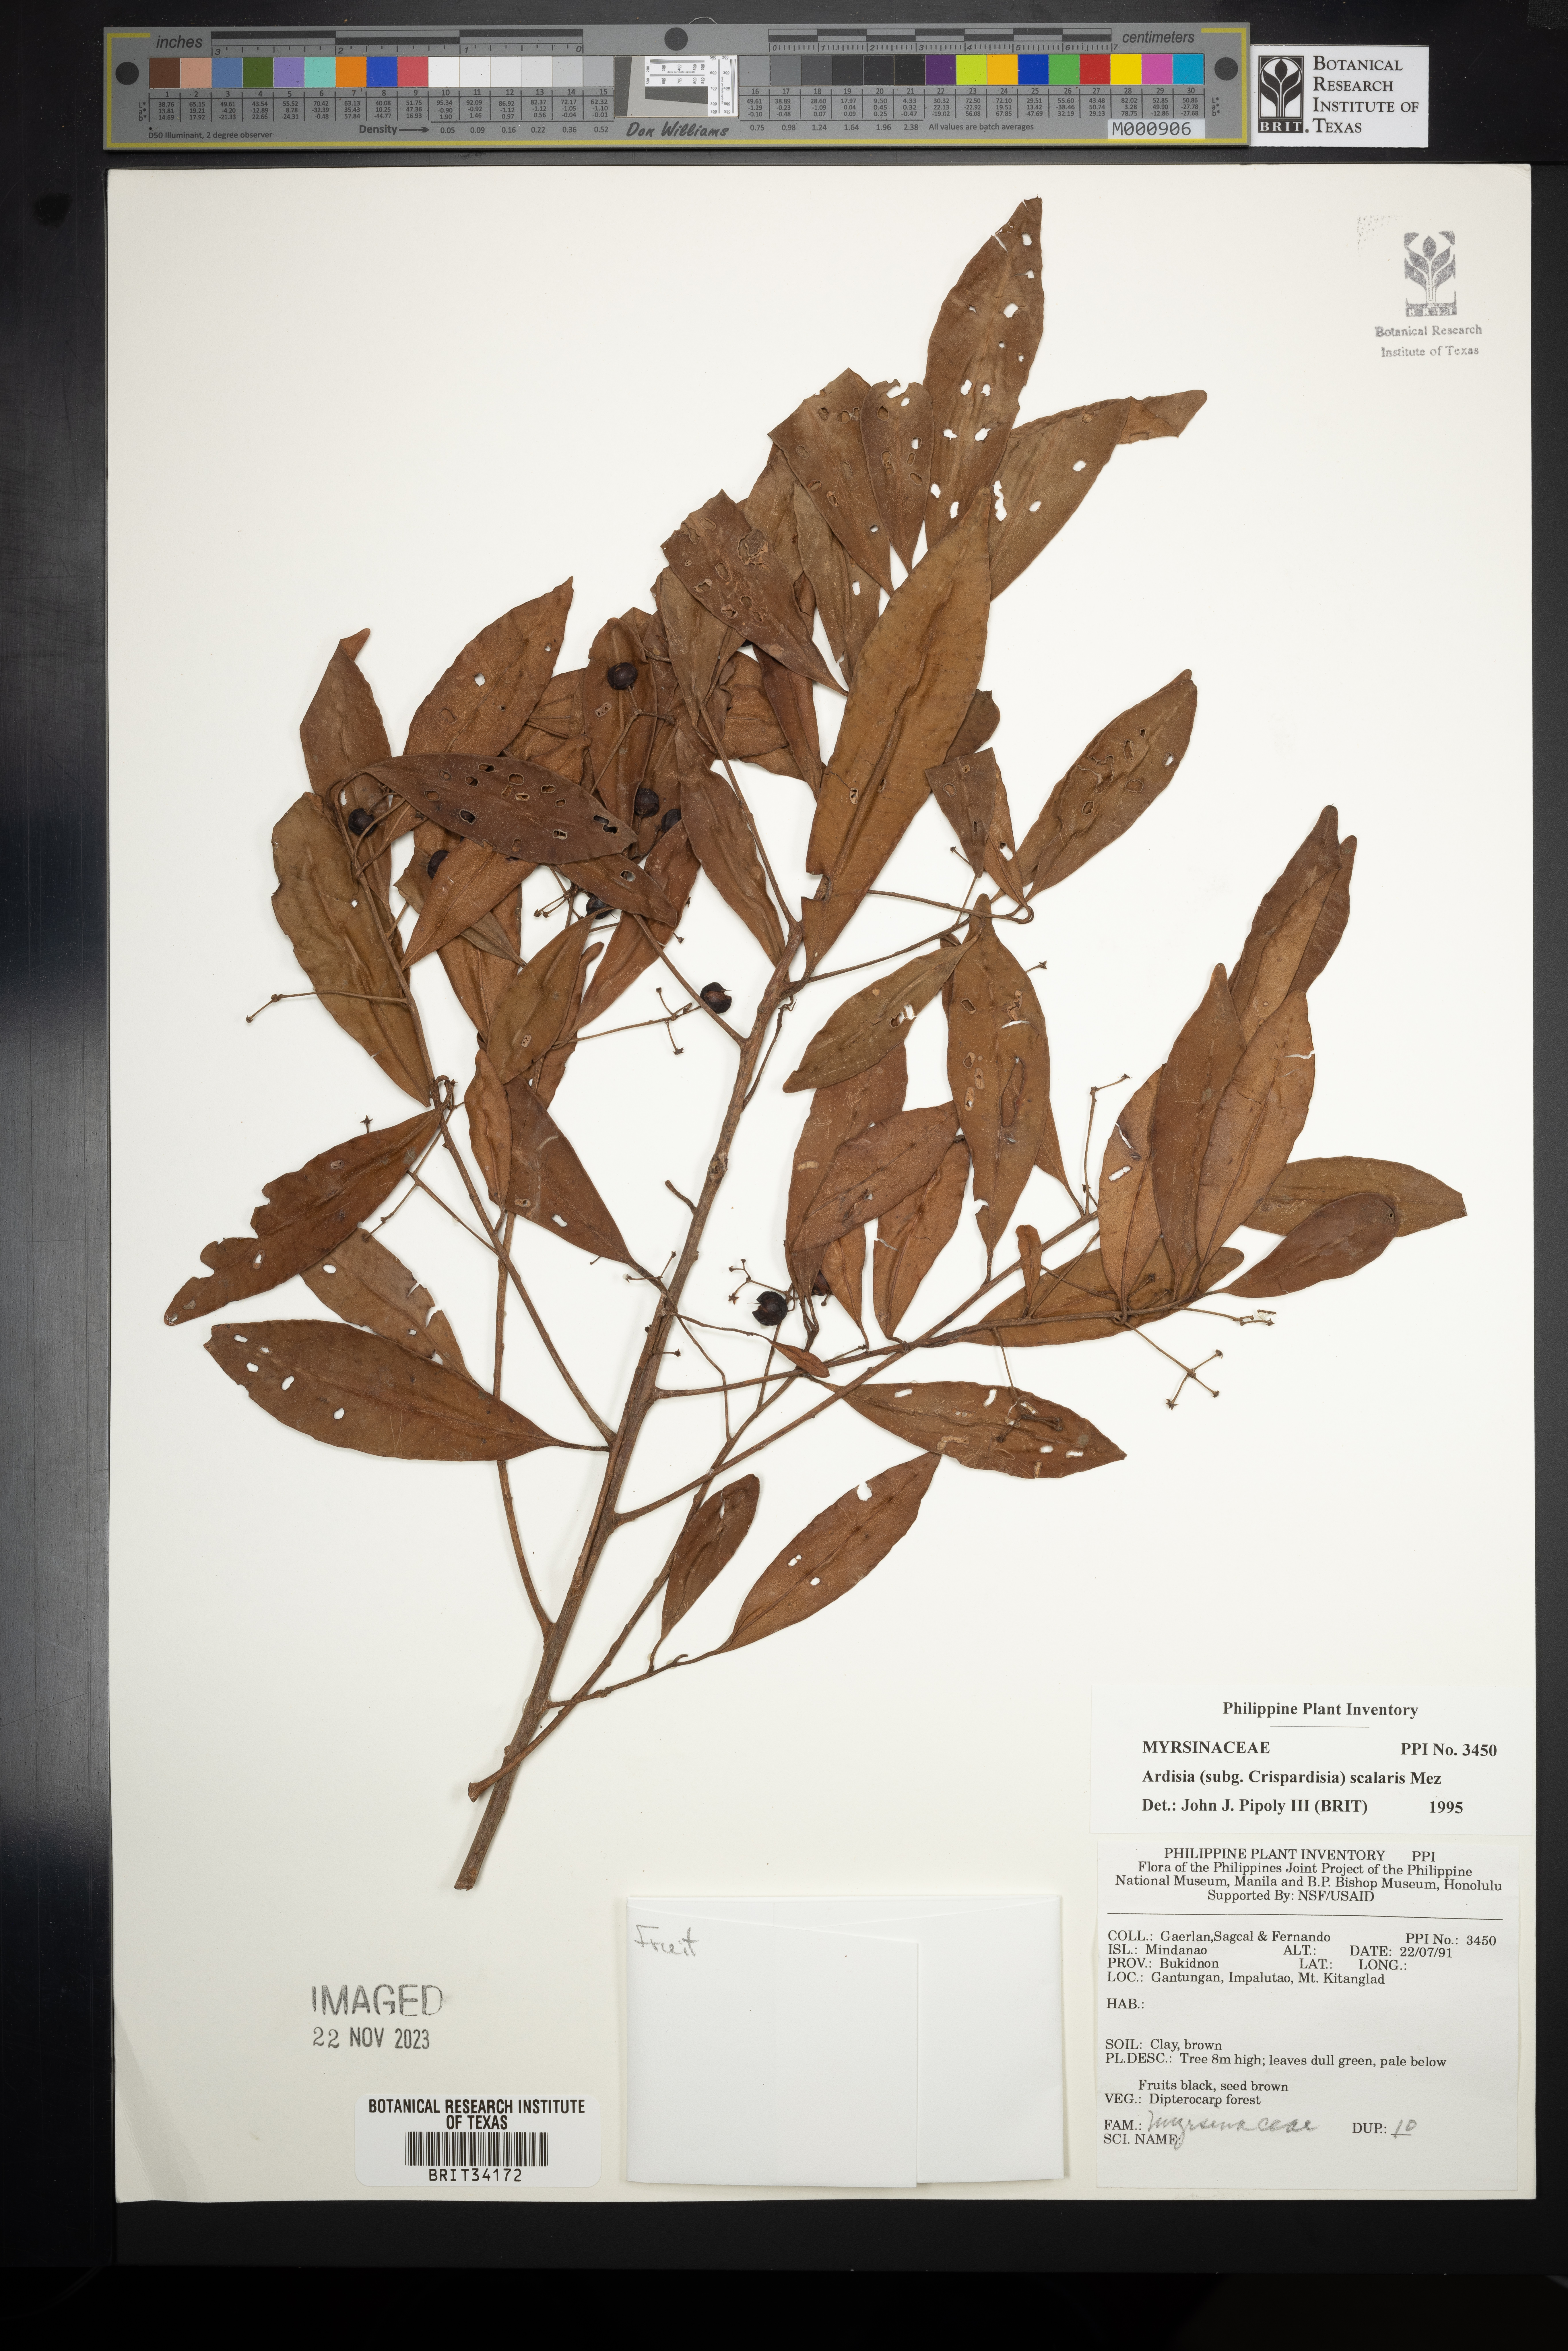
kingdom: Plantae
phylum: Tracheophyta
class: Magnoliopsida
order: Ericales
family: Primulaceae
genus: Ardisia
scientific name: Ardisia scalaris
